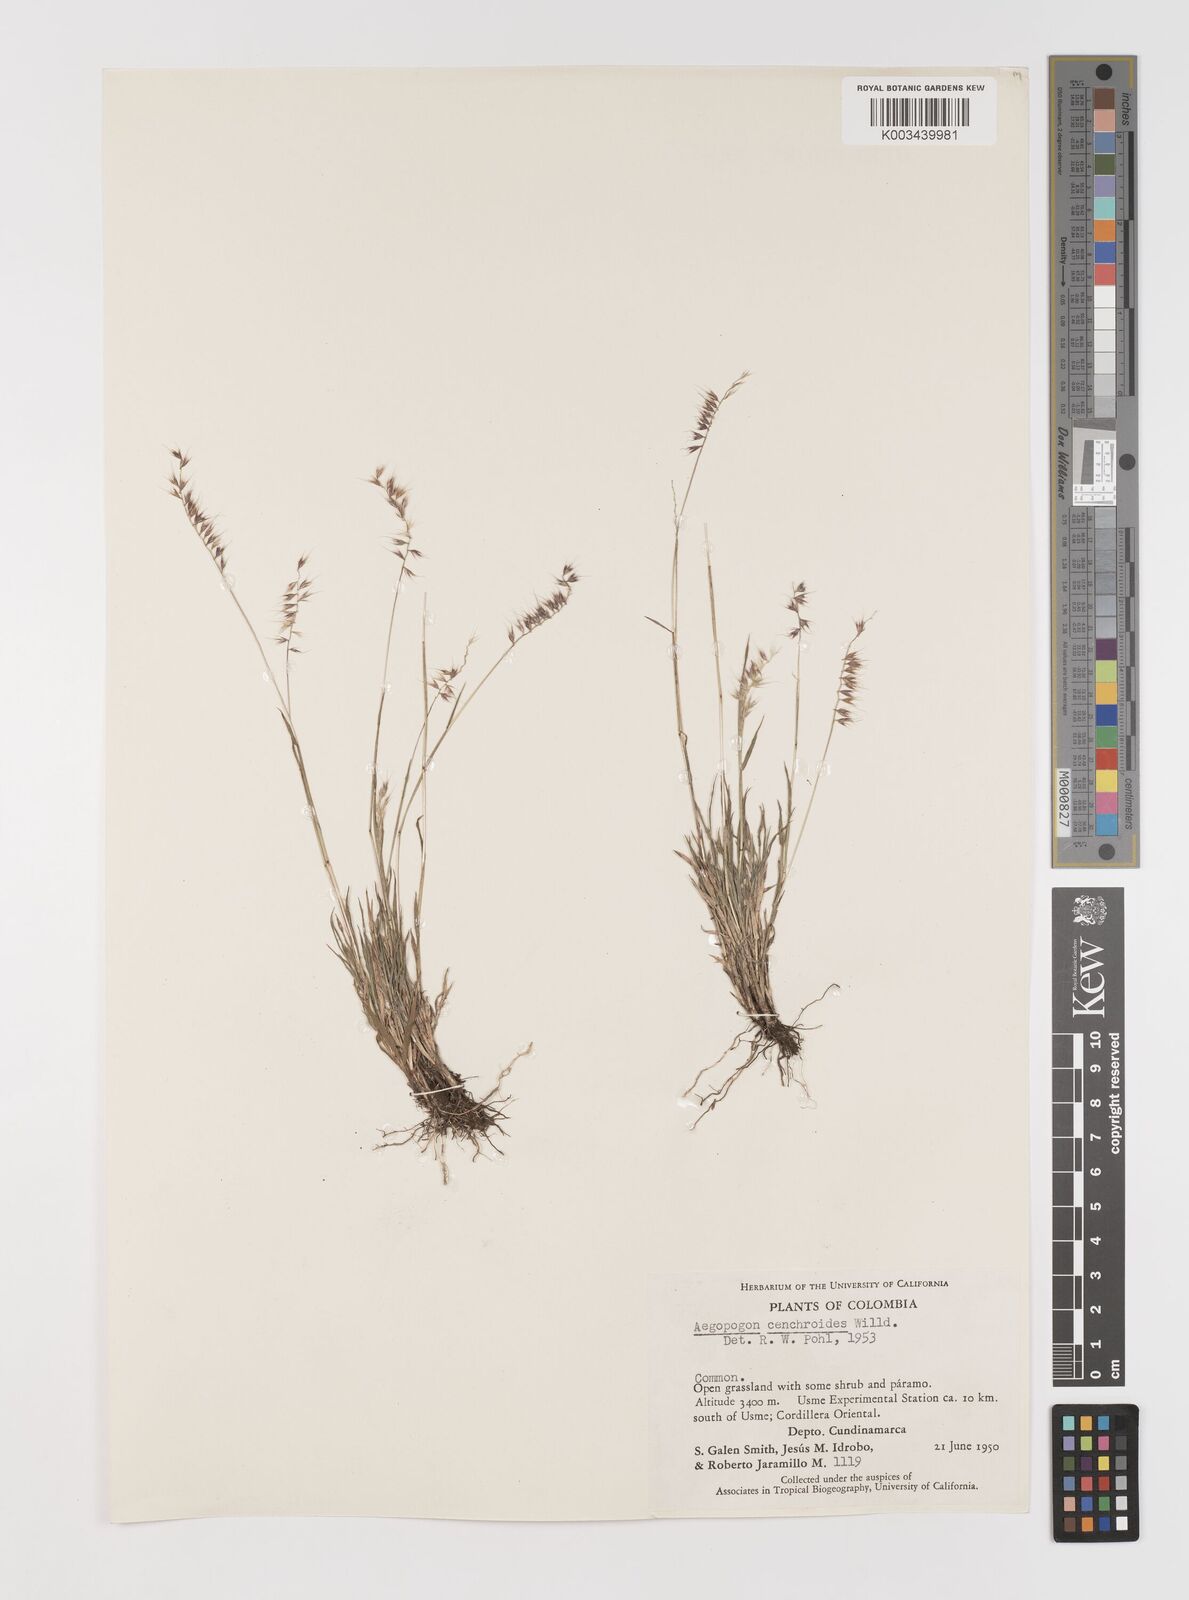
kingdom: Plantae
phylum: Tracheophyta
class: Liliopsida
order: Poales
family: Poaceae
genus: Muhlenbergia
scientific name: Muhlenbergia cenchroides
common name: Relaxgrass
